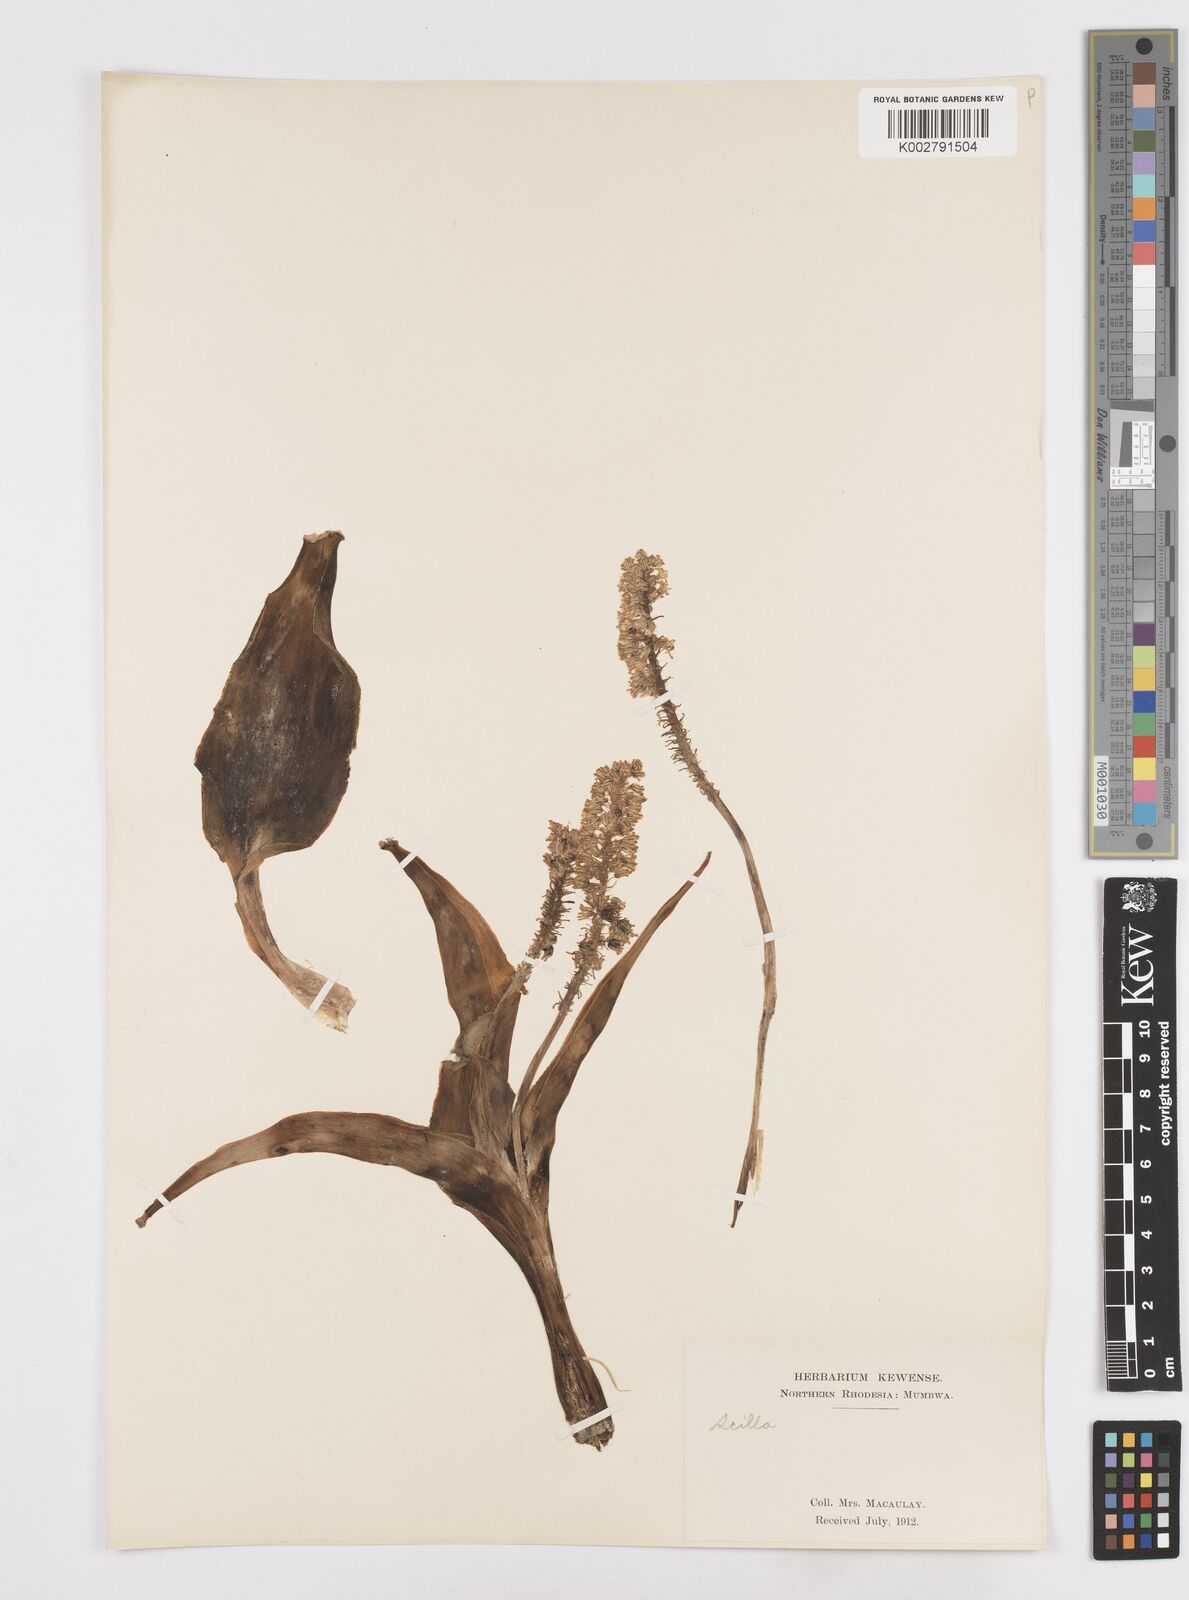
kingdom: Plantae
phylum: Tracheophyta
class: Liliopsida
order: Asparagales
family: Asparagaceae
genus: Scilla
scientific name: Scilla
